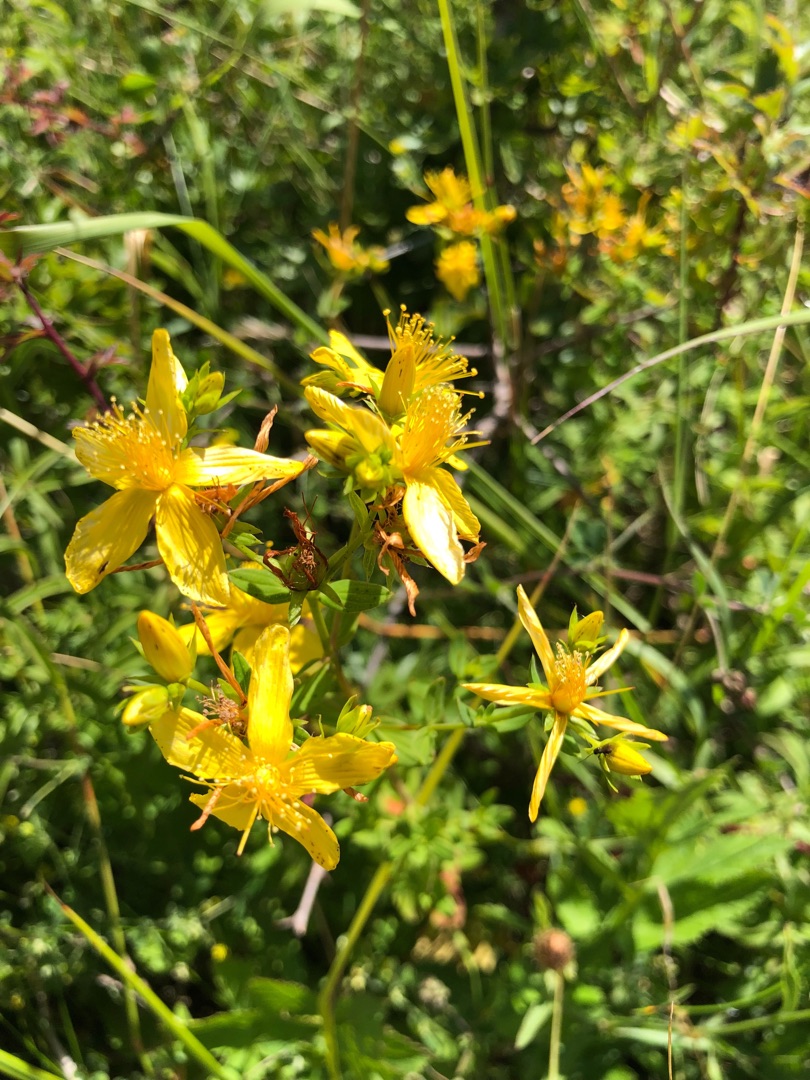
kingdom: Plantae
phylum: Tracheophyta
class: Magnoliopsida
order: Malpighiales
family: Hypericaceae
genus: Hypericum
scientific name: Hypericum perforatum
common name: Prikbladet perikon
